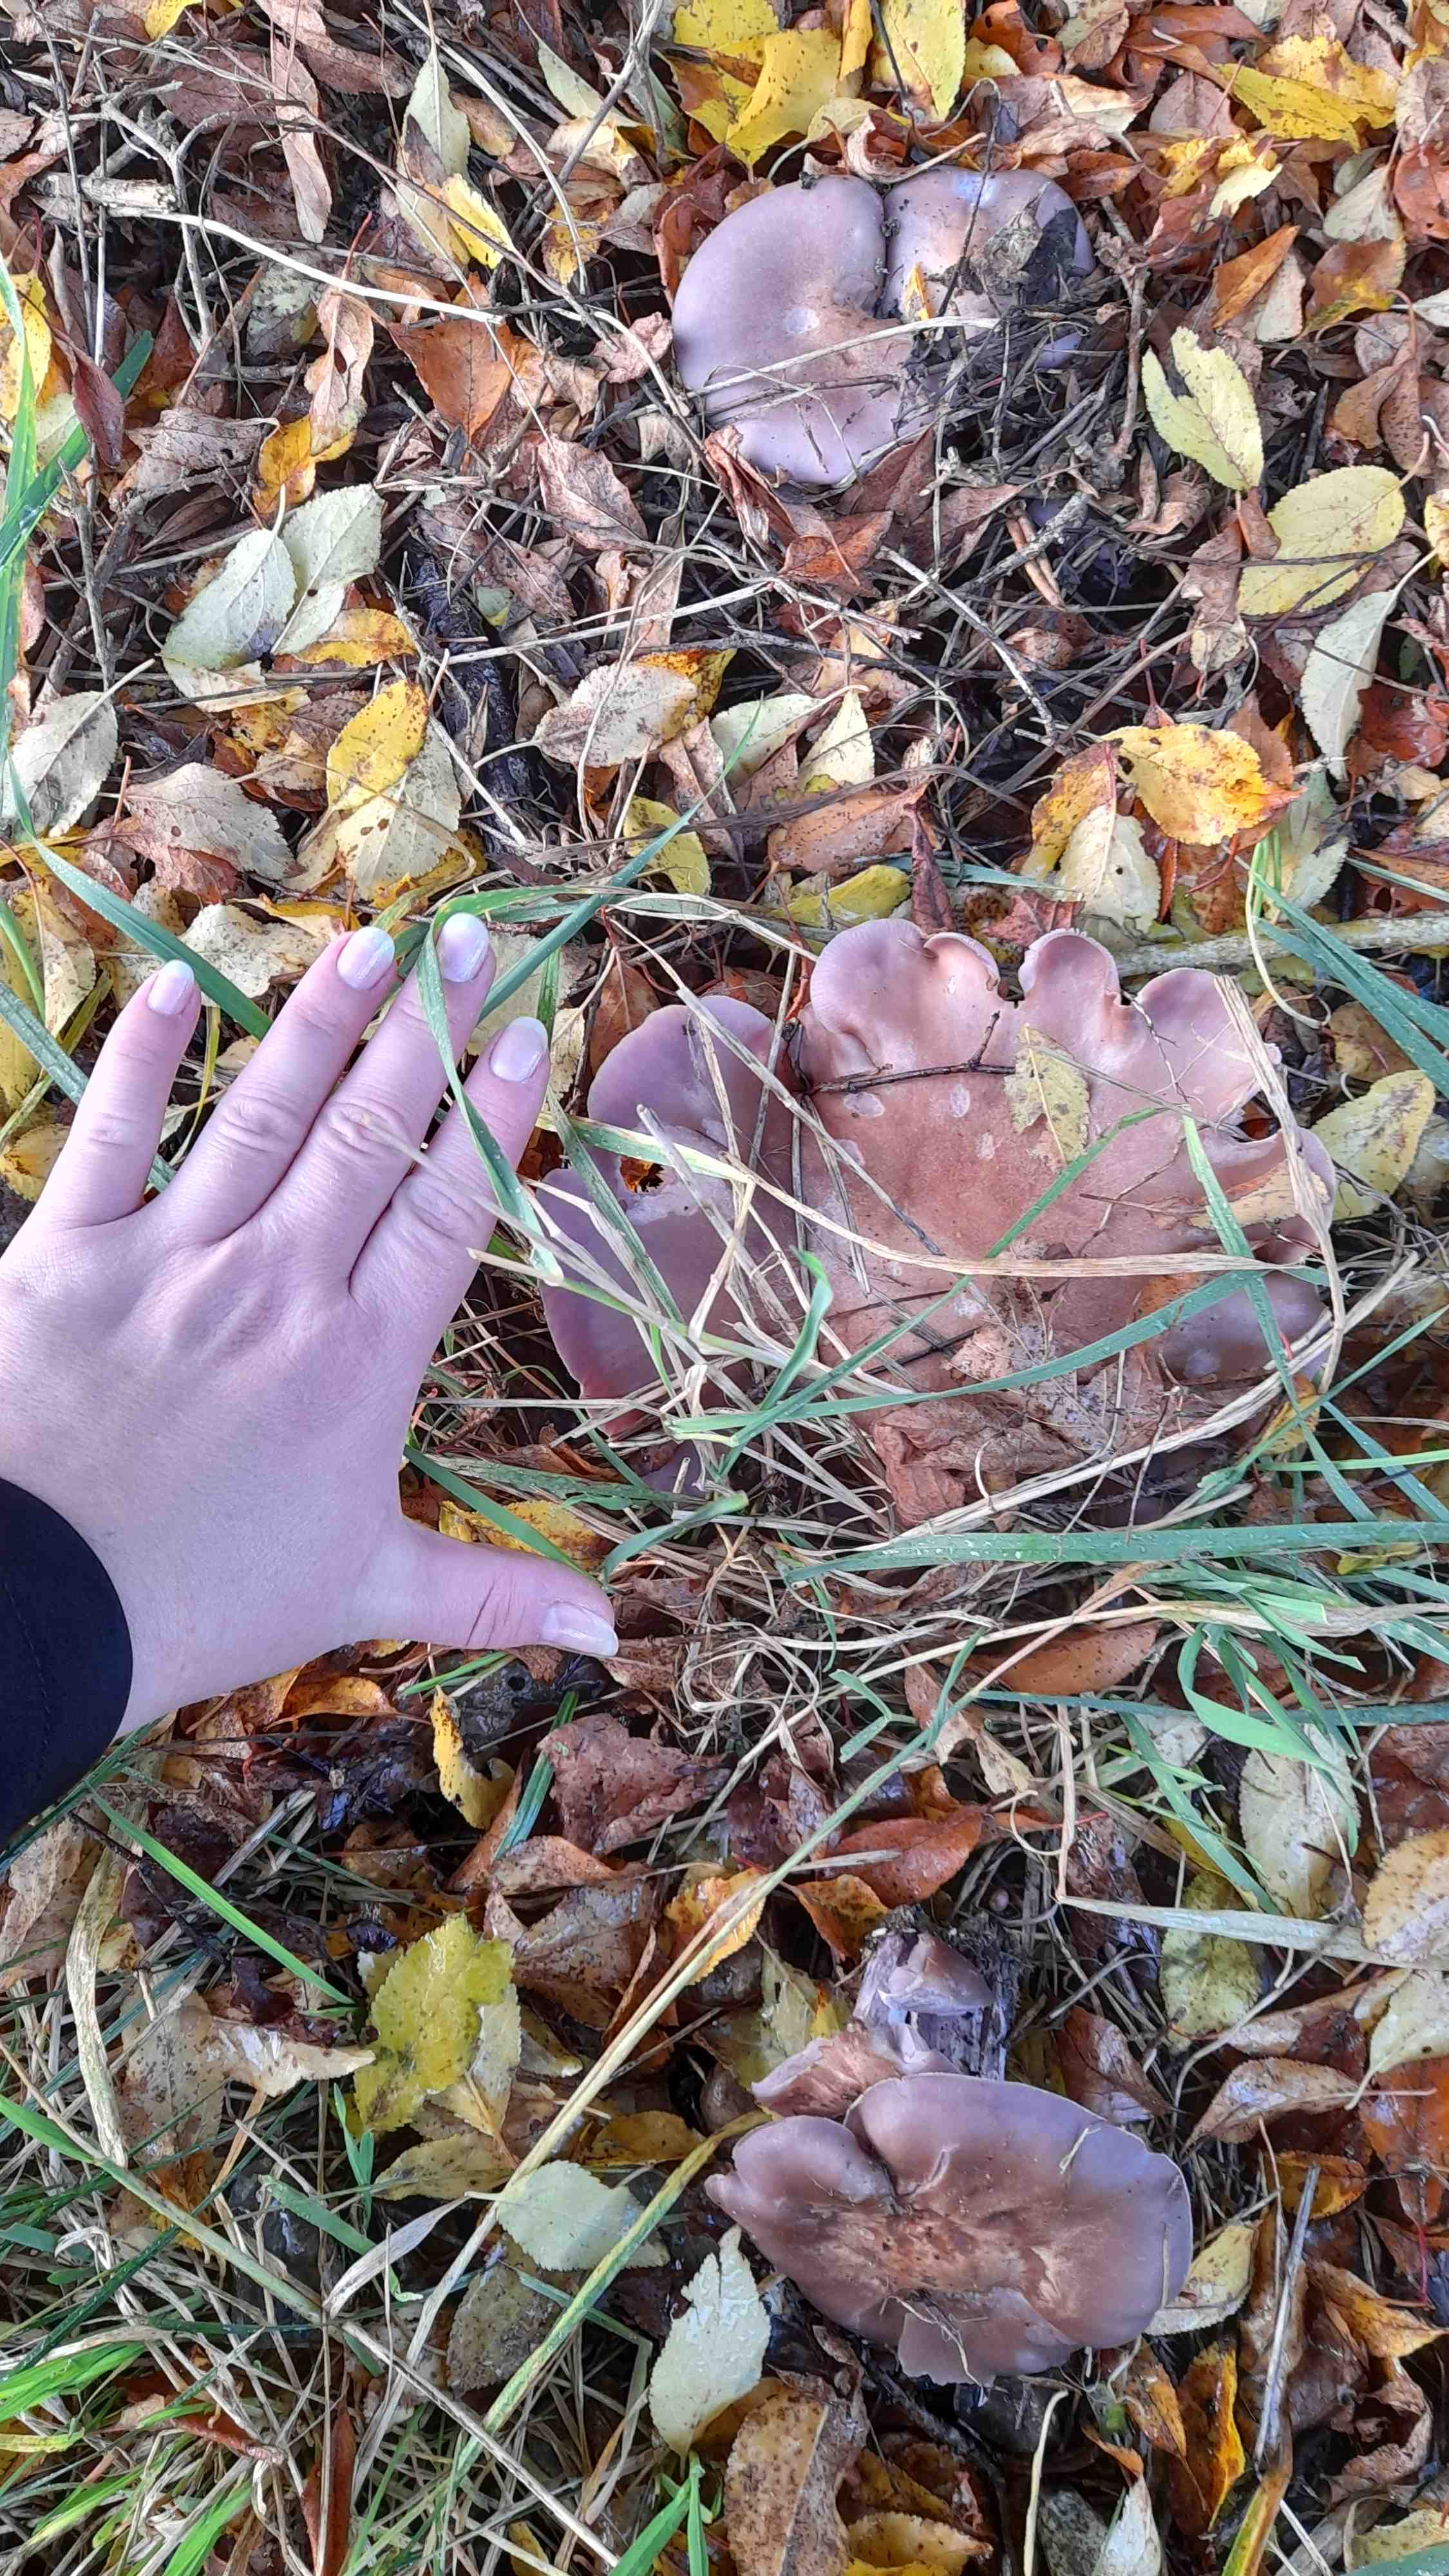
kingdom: Fungi
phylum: Basidiomycota
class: Agaricomycetes
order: Agaricales
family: Tricholomataceae
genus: Lepista
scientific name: Lepista nuda
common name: violet hekseringshat
